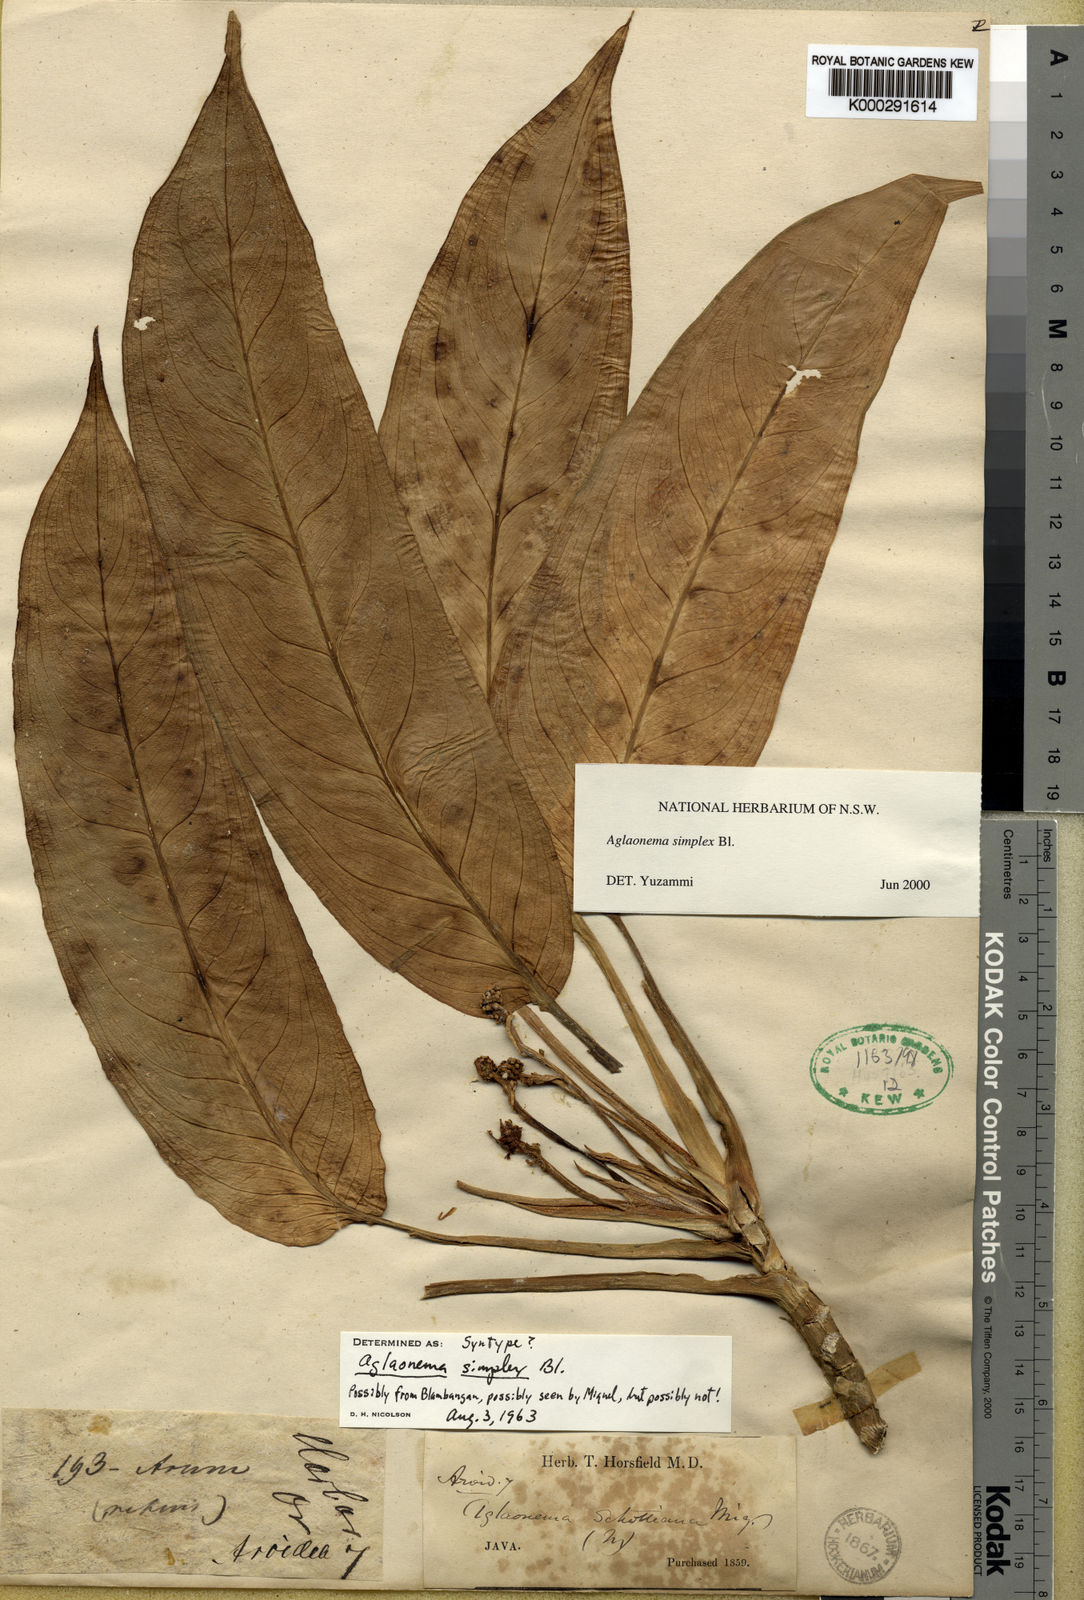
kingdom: Plantae
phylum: Tracheophyta
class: Liliopsida
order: Alismatales
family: Araceae
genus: Aglaonema
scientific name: Aglaonema simplex
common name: Malayan-sword
